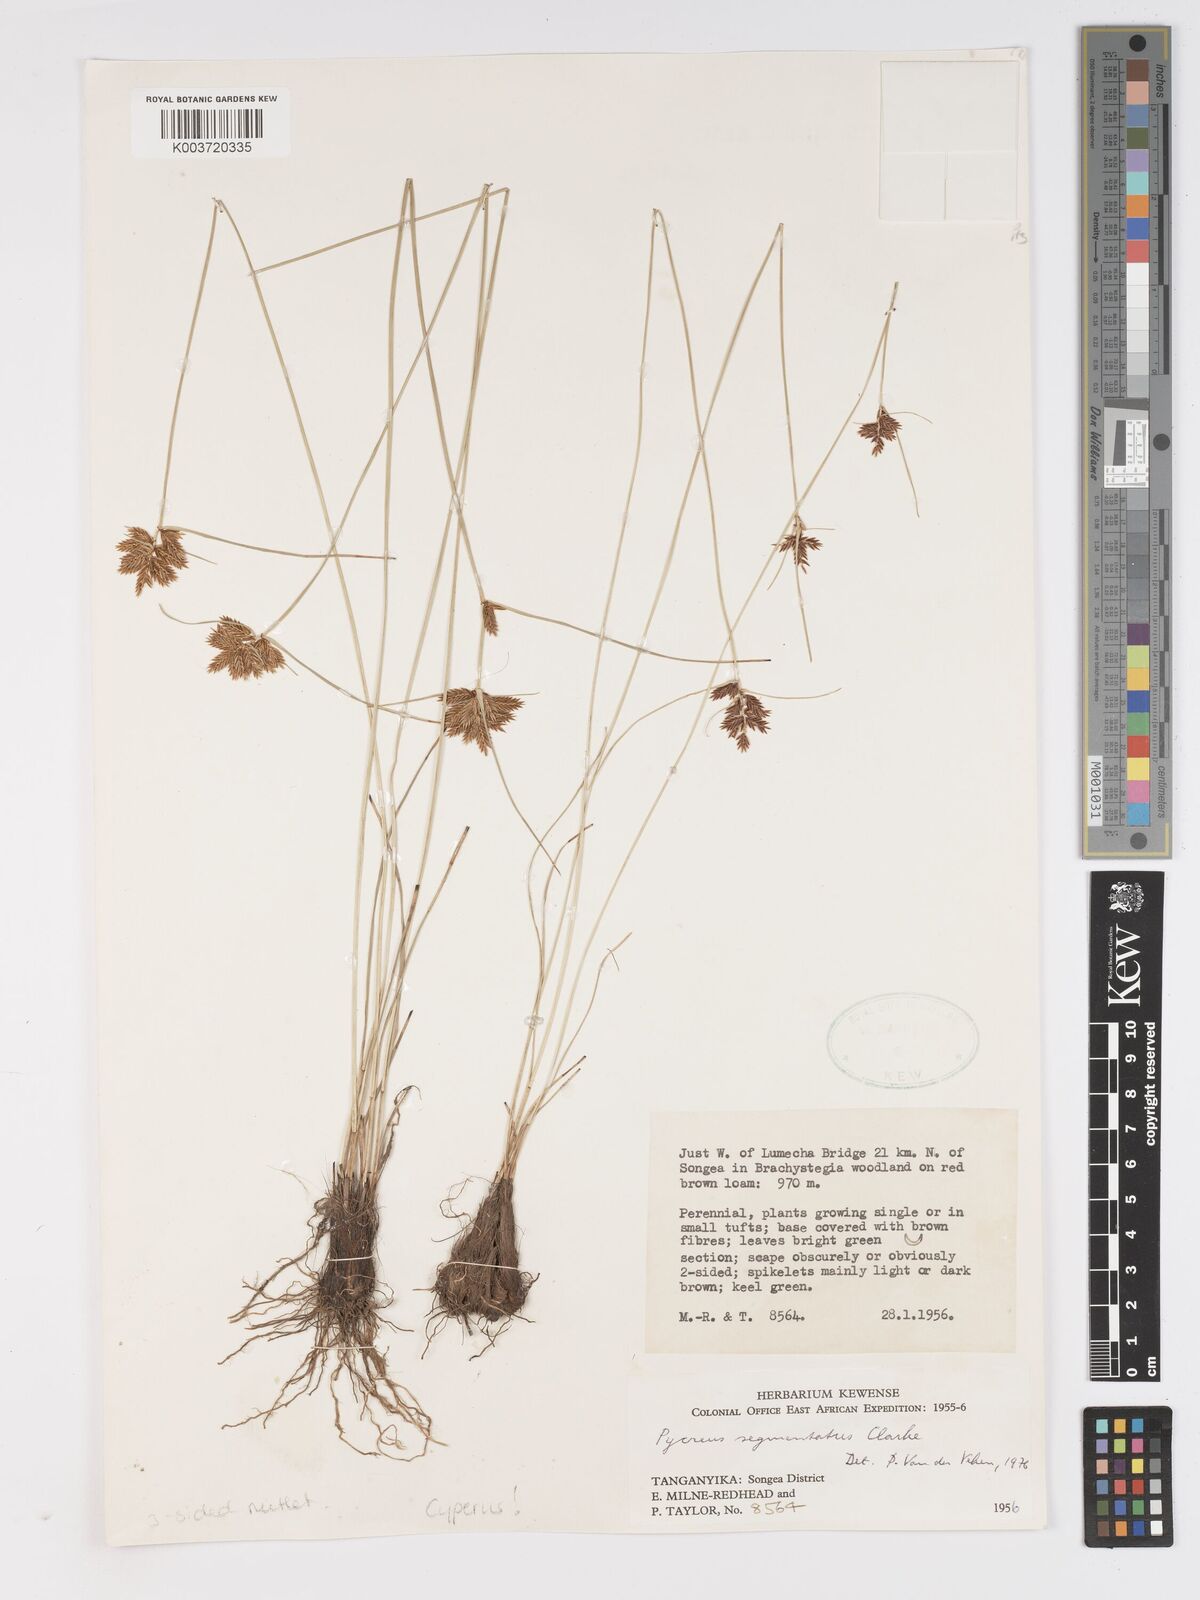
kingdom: Plantae
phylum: Tracheophyta
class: Liliopsida
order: Poales
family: Cyperaceae
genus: Cyperus
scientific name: Cyperus
